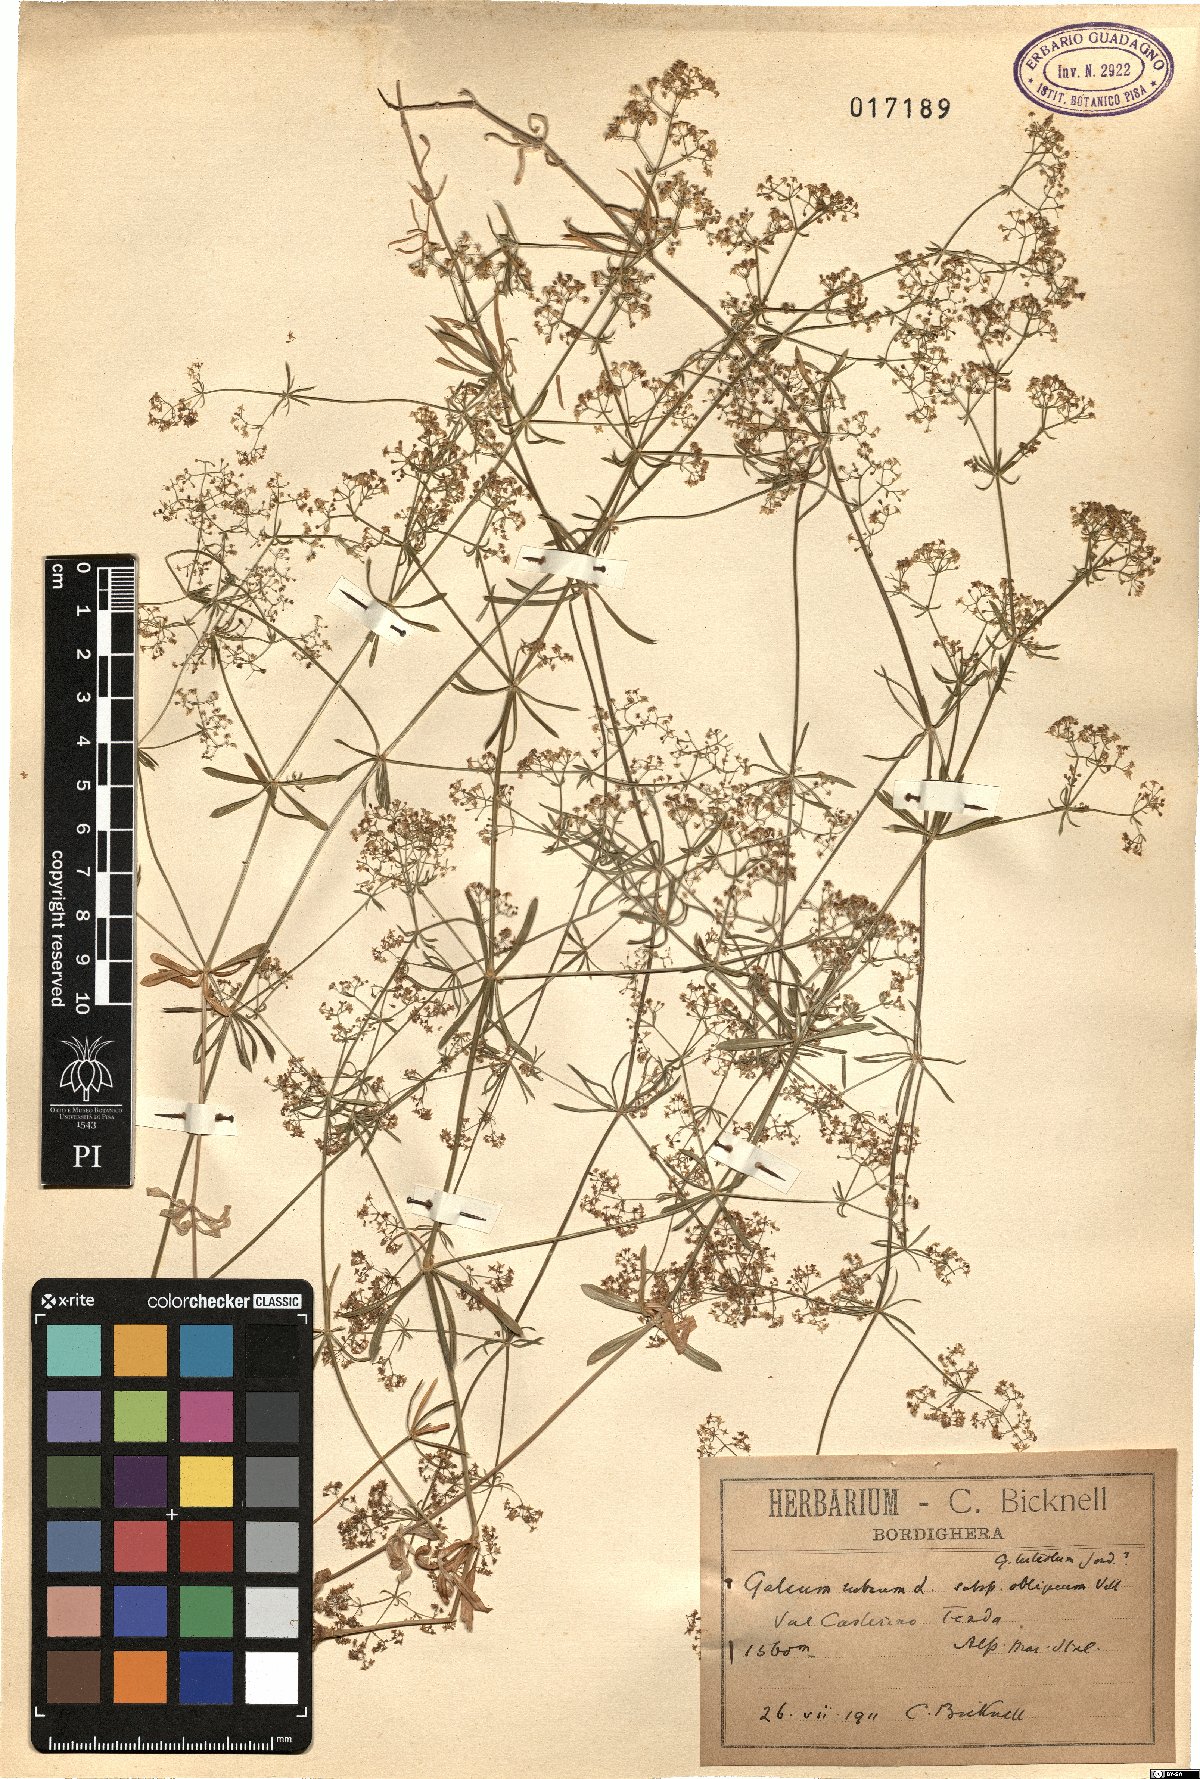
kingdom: Plantae
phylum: Tracheophyta
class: Magnoliopsida
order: Gentianales
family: Rubiaceae
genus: Galium
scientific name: Galium obliquum
